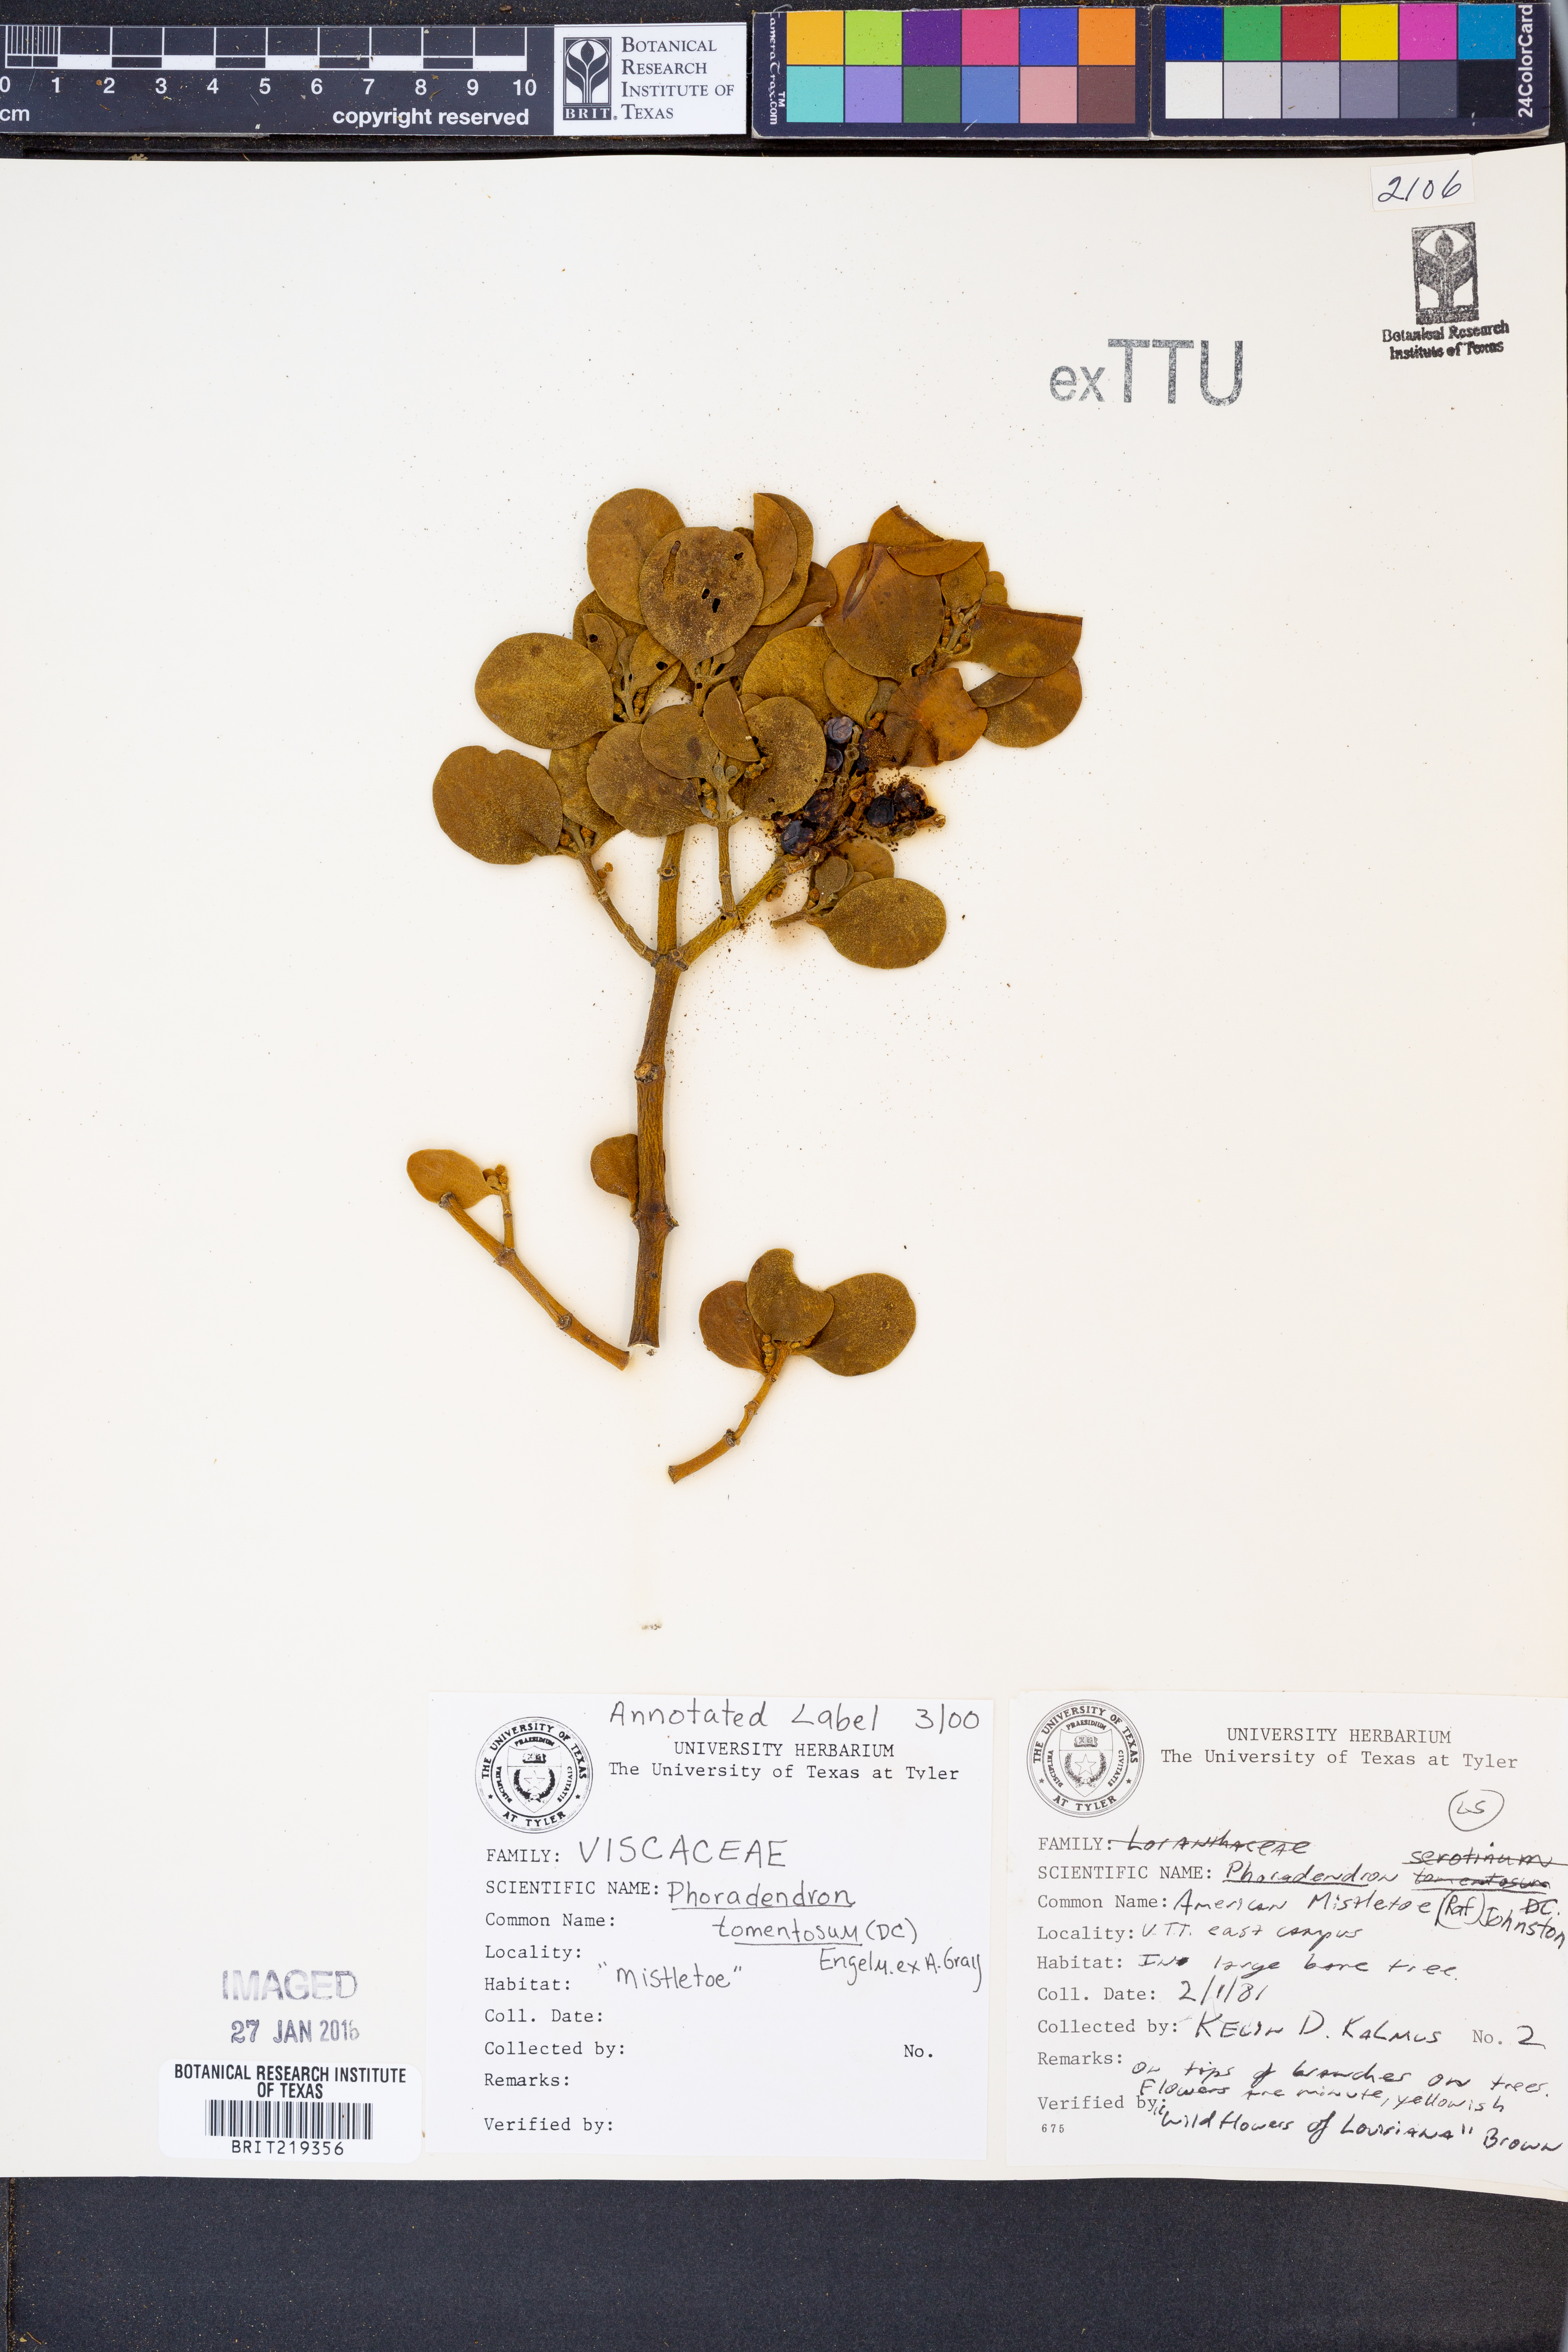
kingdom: Plantae
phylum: Tracheophyta
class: Magnoliopsida
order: Santalales
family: Viscaceae
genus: Phoradendron
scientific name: Phoradendron leucarpum
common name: Pacific mistletoe
